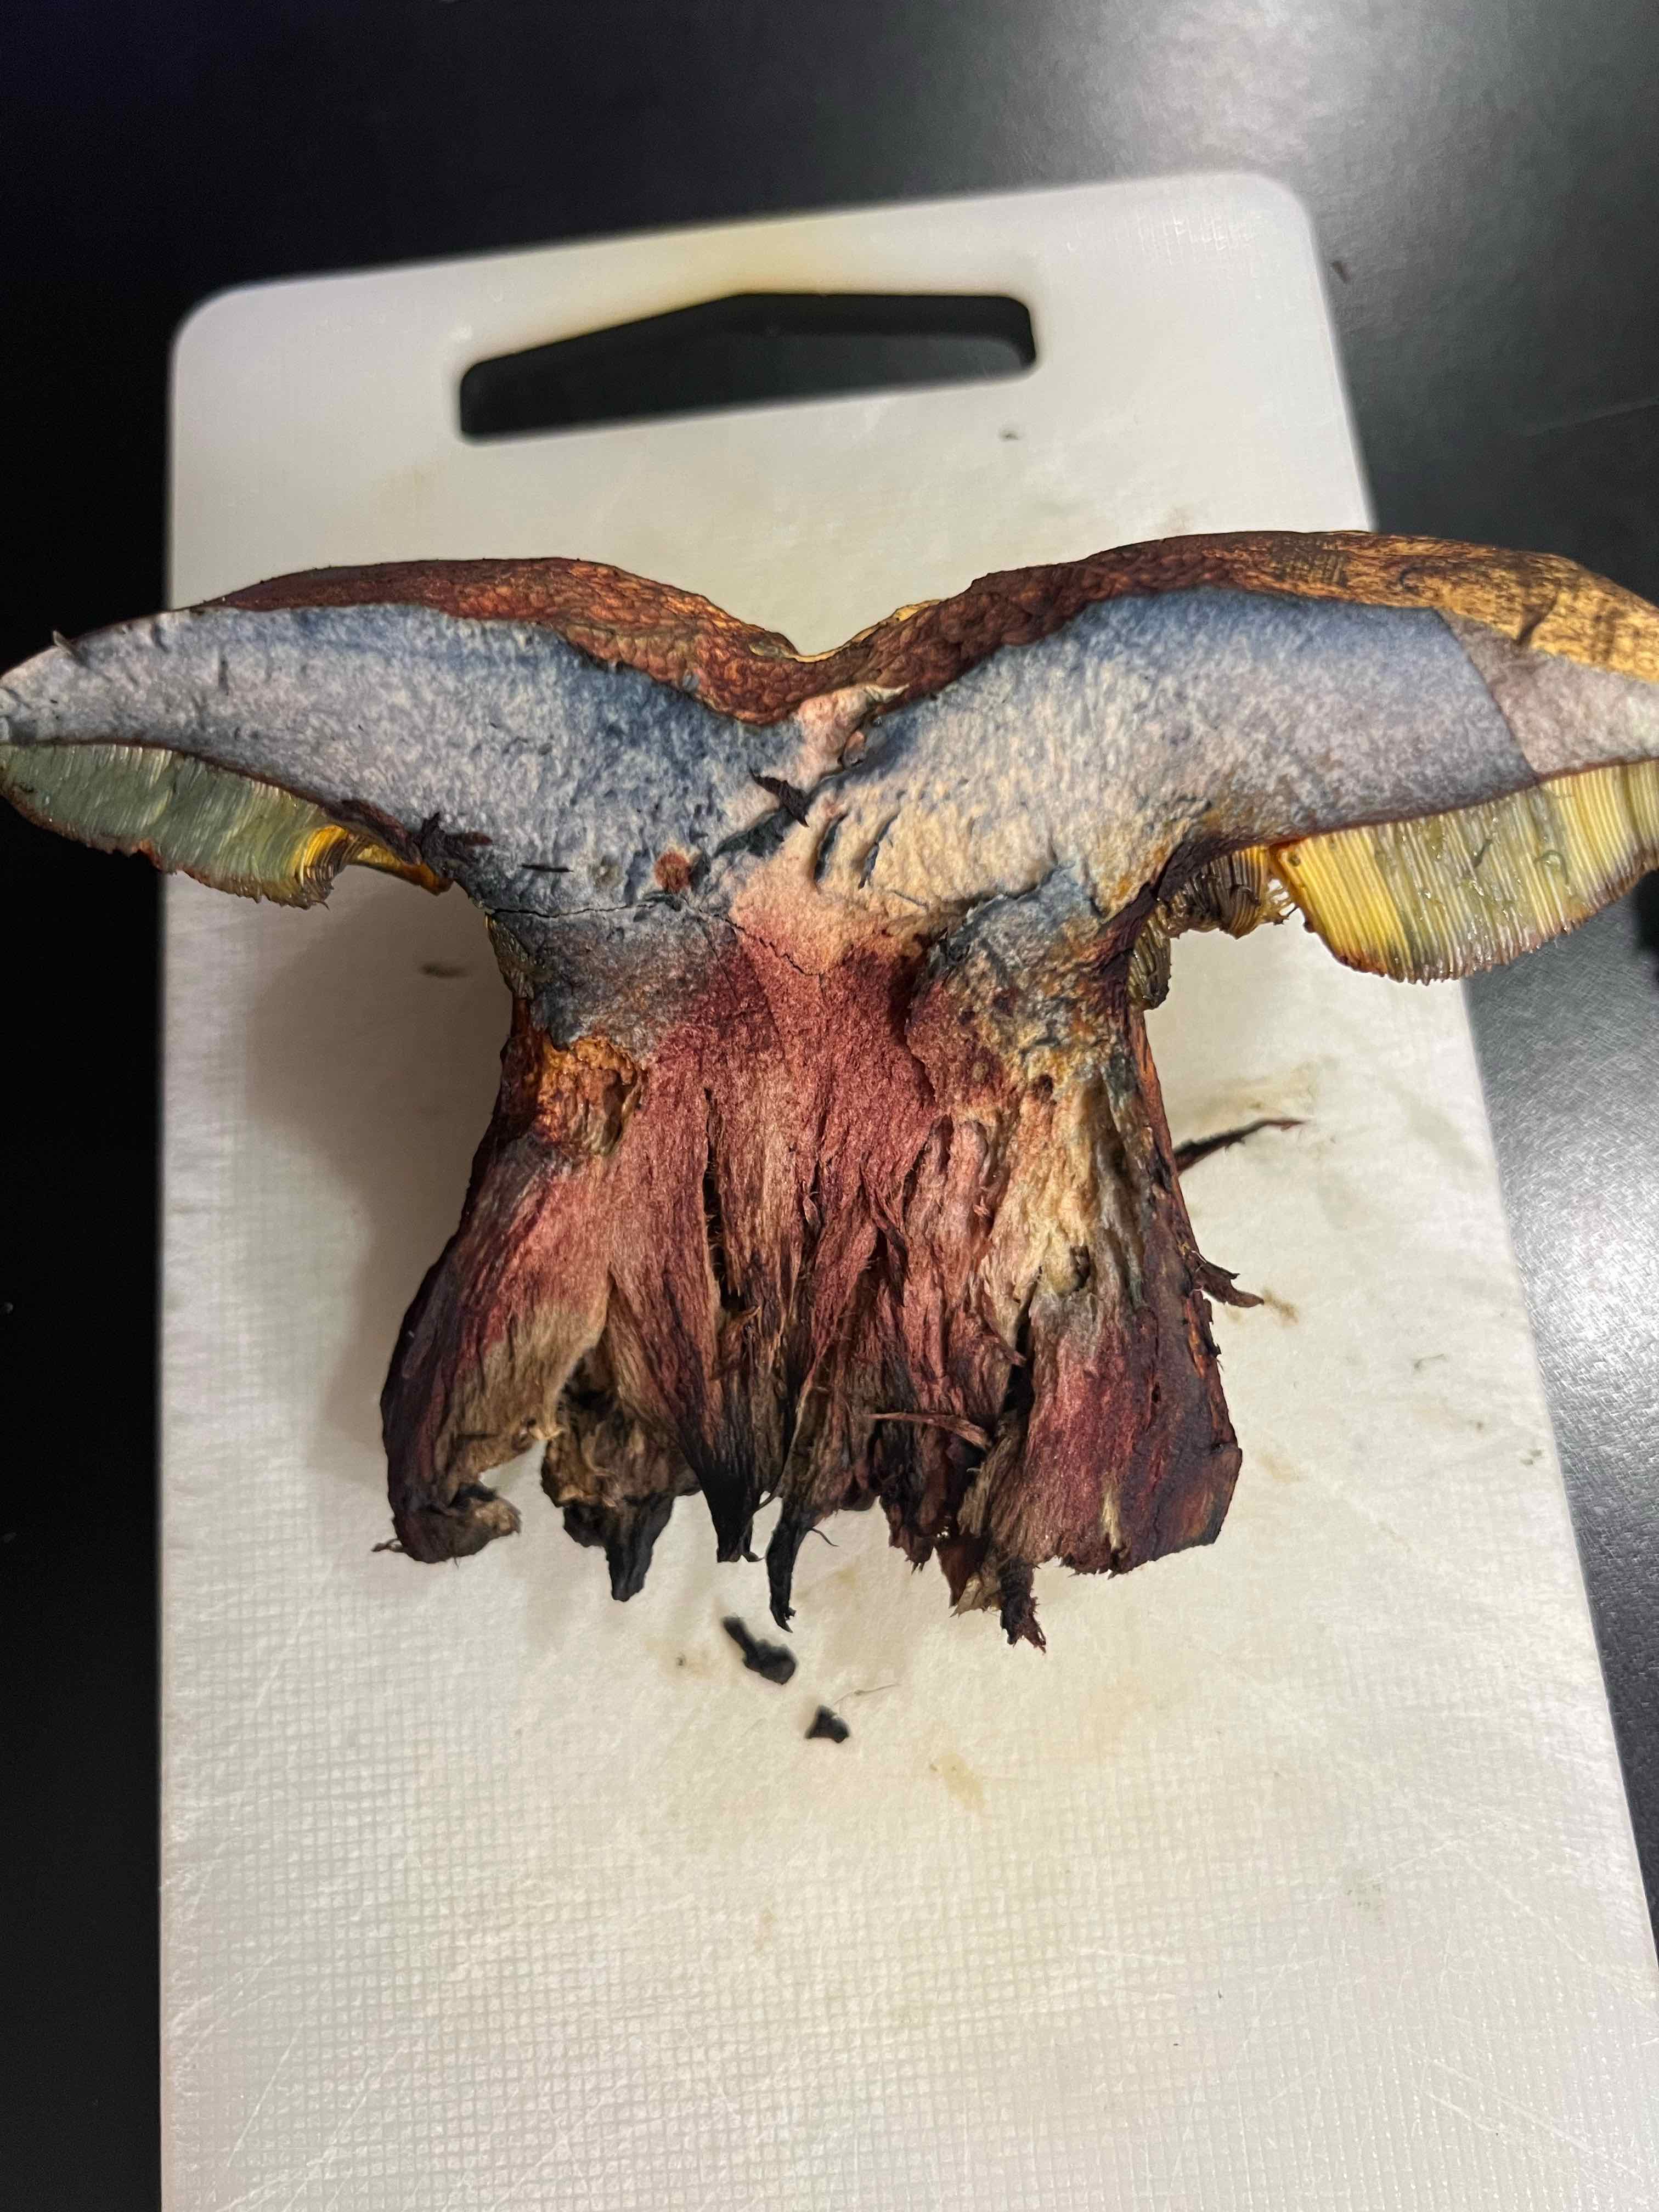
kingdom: Fungi
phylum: Basidiomycota
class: Agaricomycetes
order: Boletales
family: Boletaceae
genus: Suillellus
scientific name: Suillellus luridus
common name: netstokket indigorørhat
